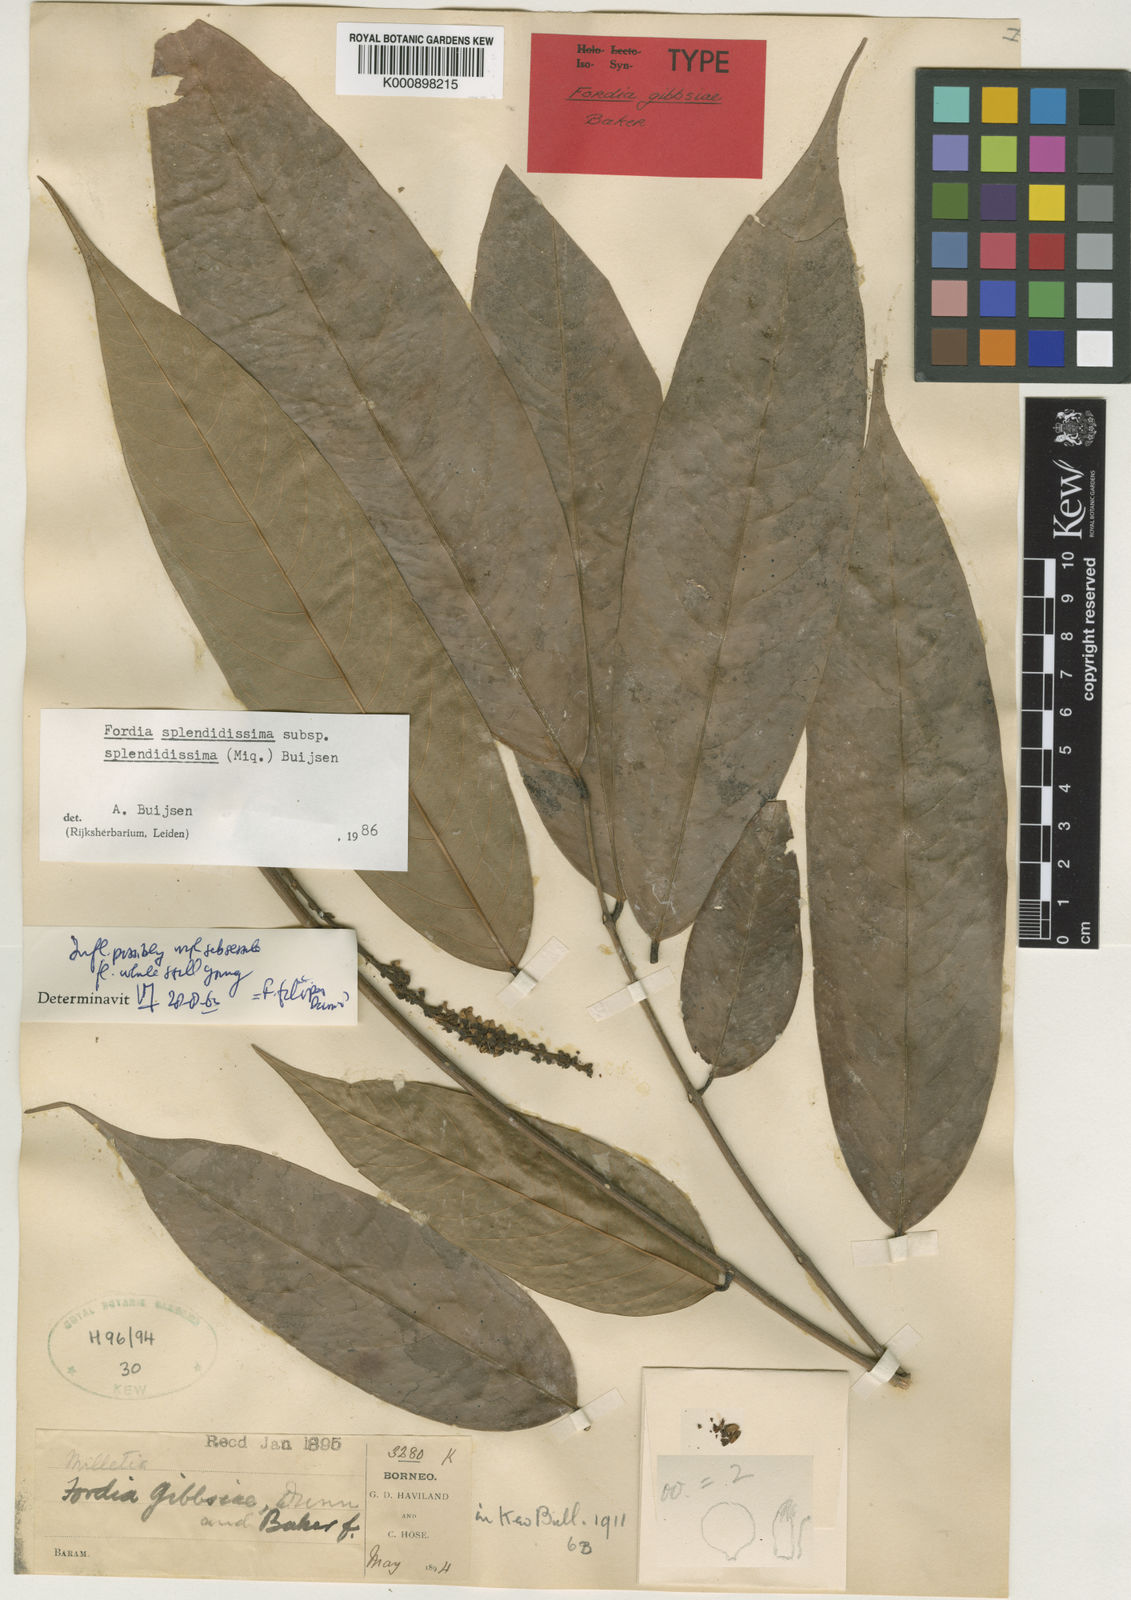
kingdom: Plantae
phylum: Tracheophyta
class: Magnoliopsida
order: Fabales
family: Fabaceae
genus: Fordia
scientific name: Fordia splendidissima
